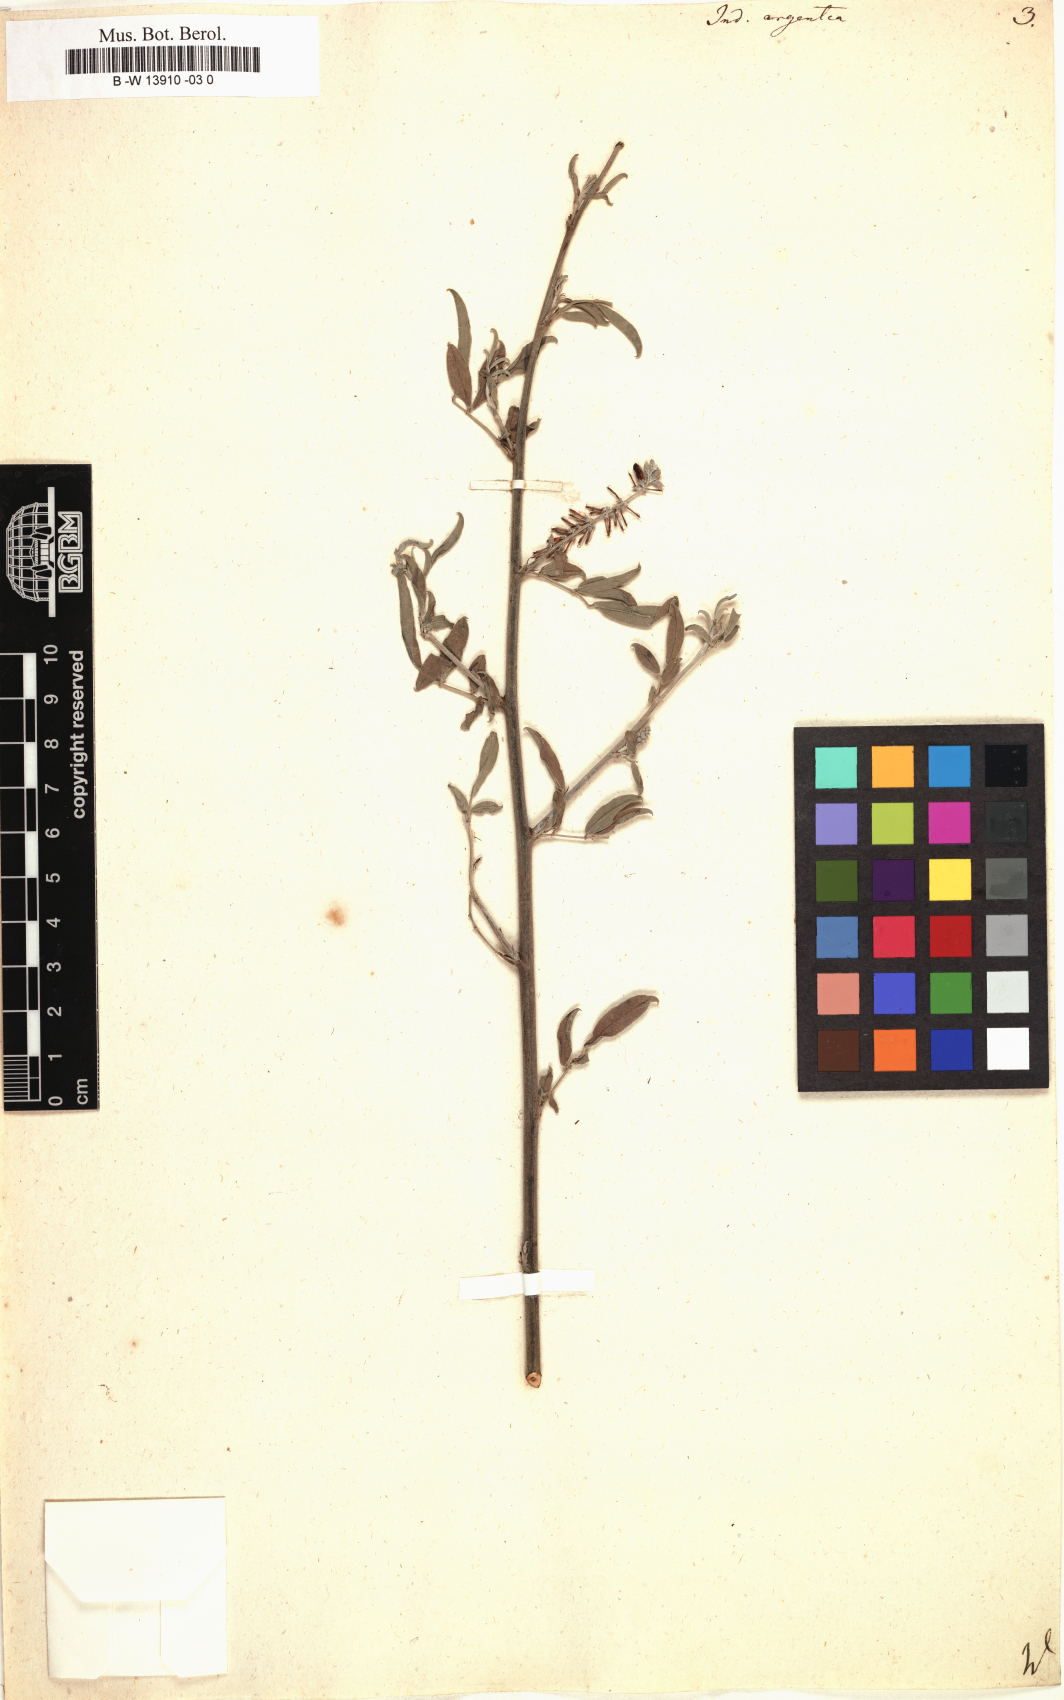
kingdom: Plantae
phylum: Tracheophyta
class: Magnoliopsida
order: Fabales
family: Fabaceae
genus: Indigofera
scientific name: Indigofera argentea
